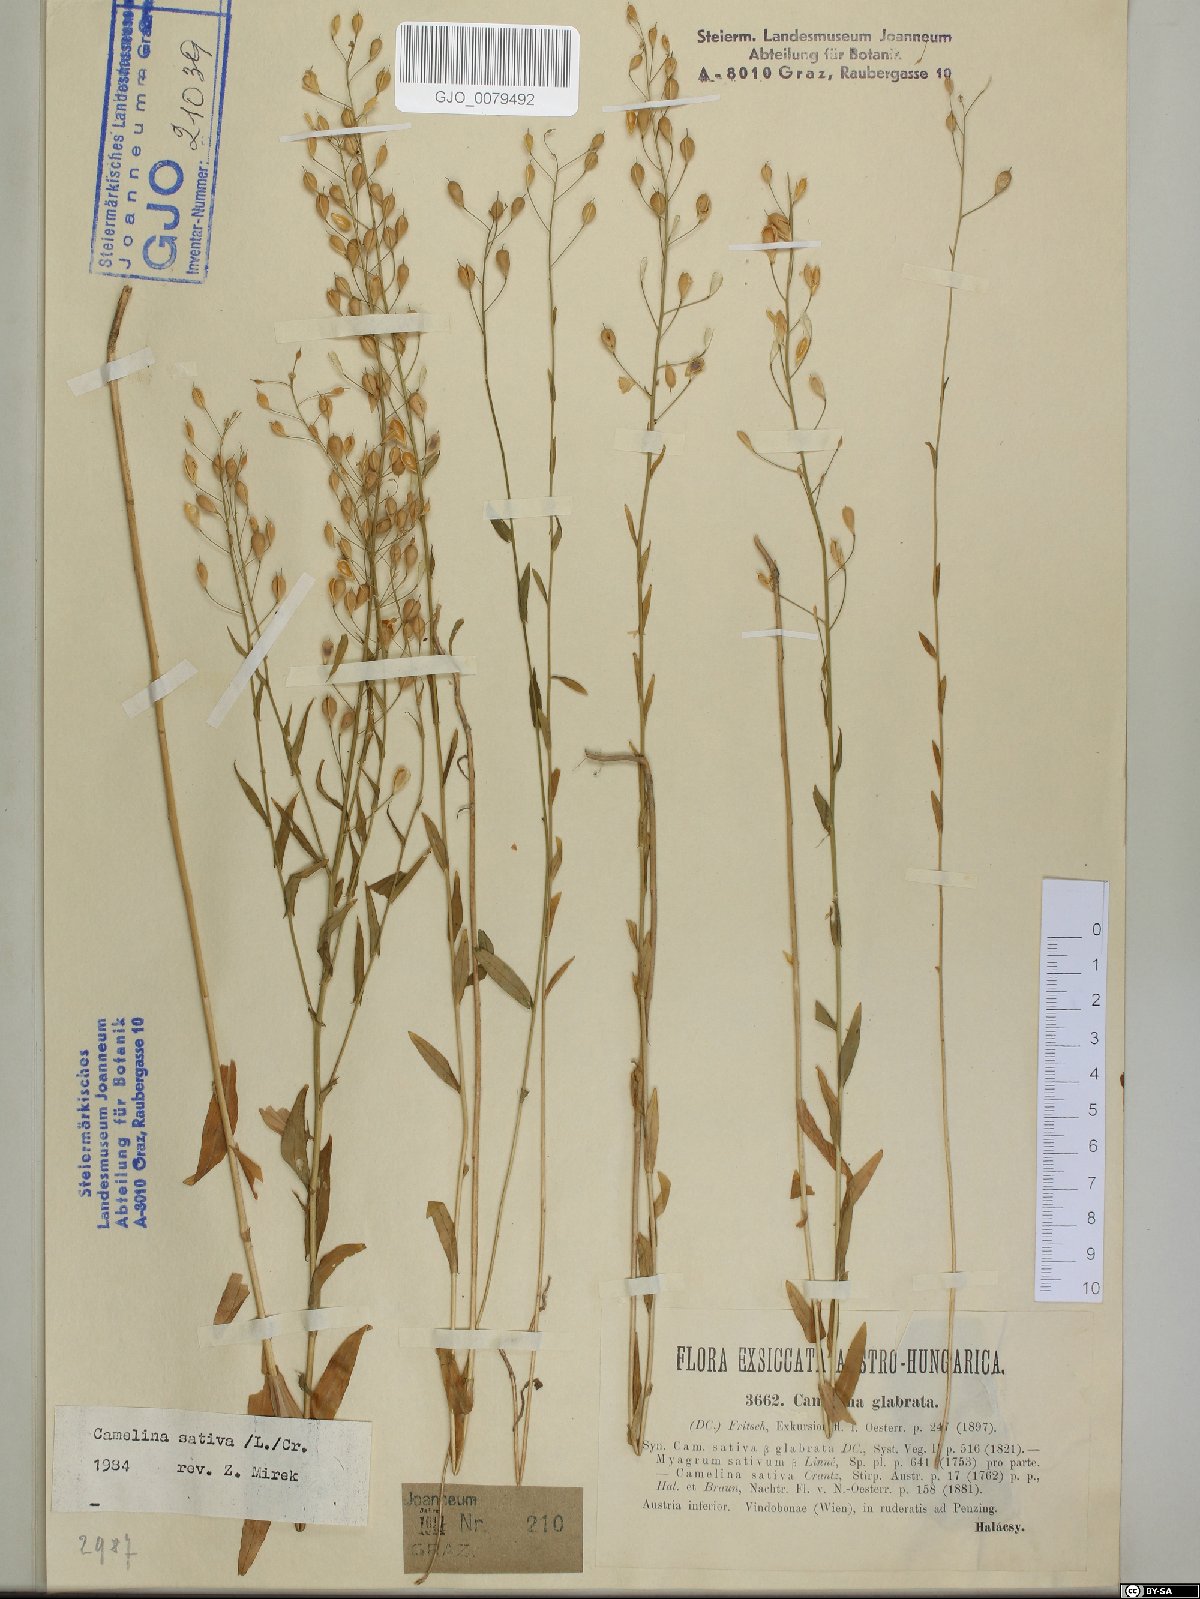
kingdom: Plantae
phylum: Tracheophyta
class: Magnoliopsida
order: Brassicales
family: Brassicaceae
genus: Camelina
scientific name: Camelina sativa
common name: Gold-of-pleasure
